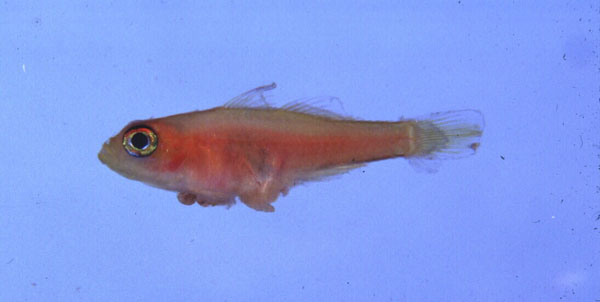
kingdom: Animalia
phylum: Chordata
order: Perciformes
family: Gobiidae
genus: Trimma
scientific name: Trimma anaima
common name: Pale dwarfgoby
